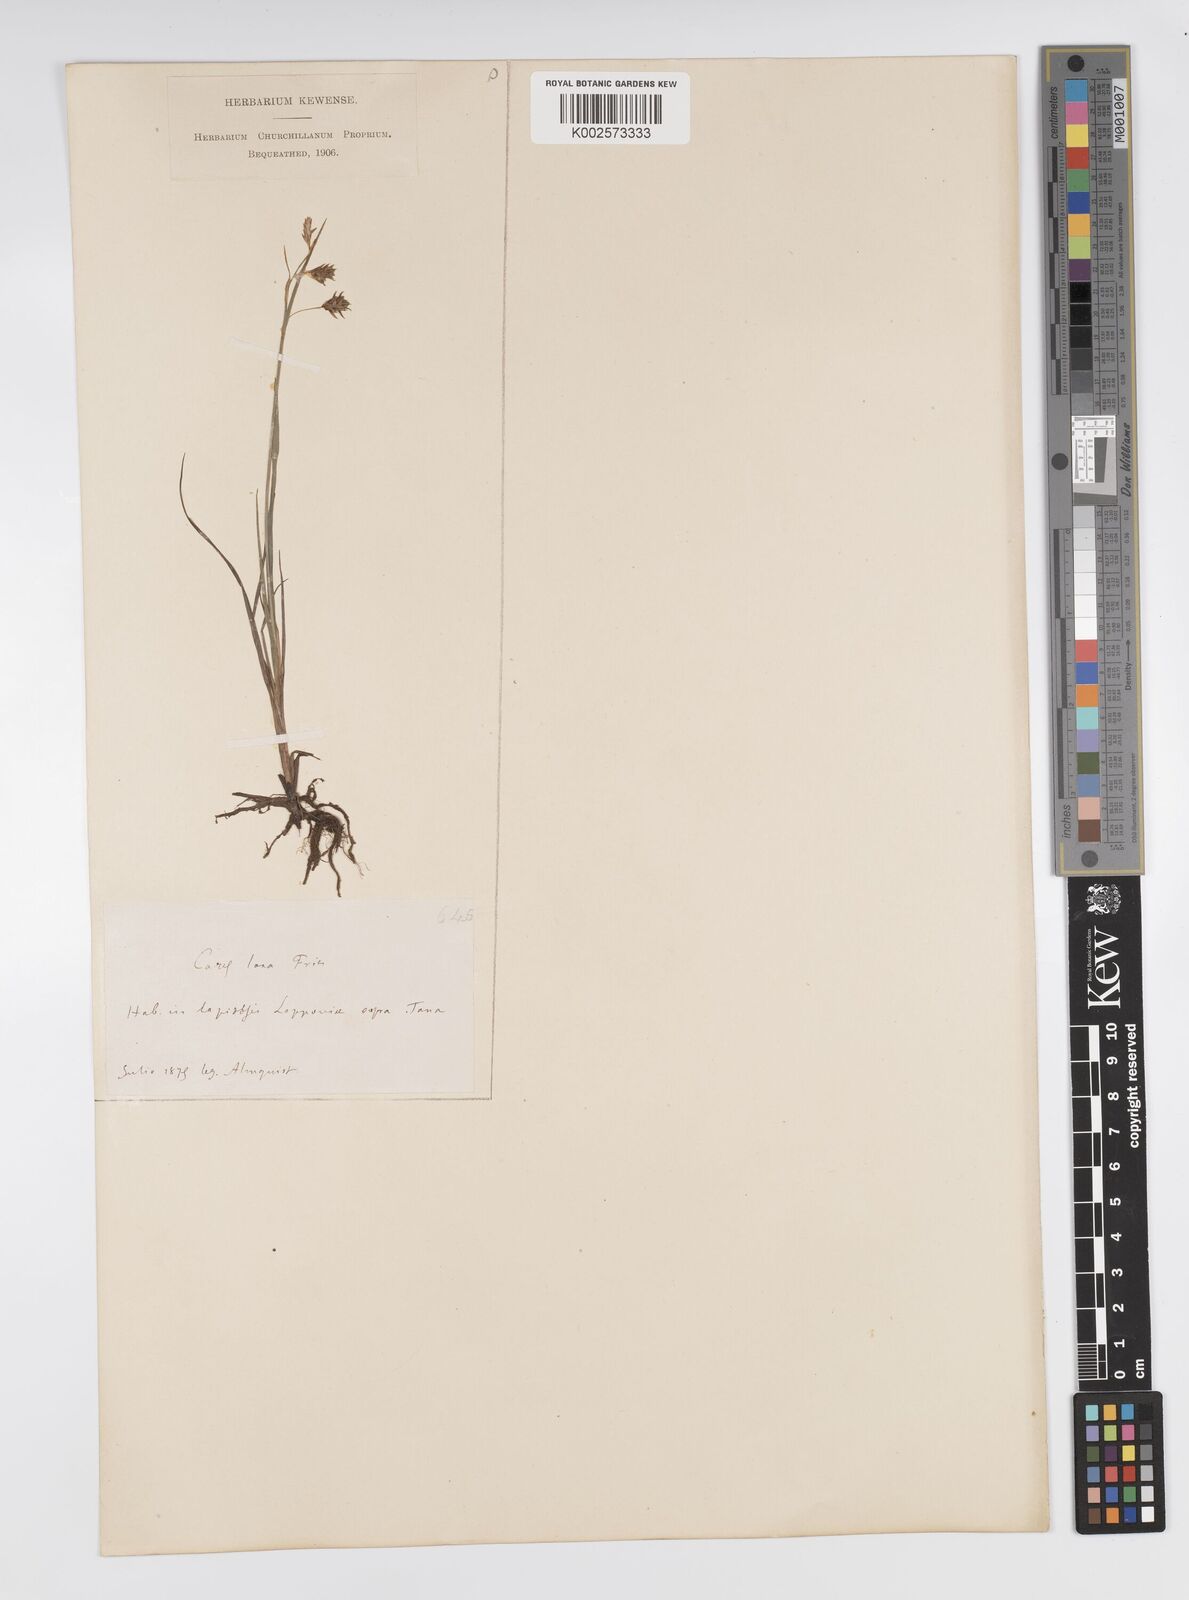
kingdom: Plantae
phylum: Tracheophyta
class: Liliopsida
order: Poales
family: Cyperaceae
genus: Carex
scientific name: Carex laxa
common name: Weak sedge
